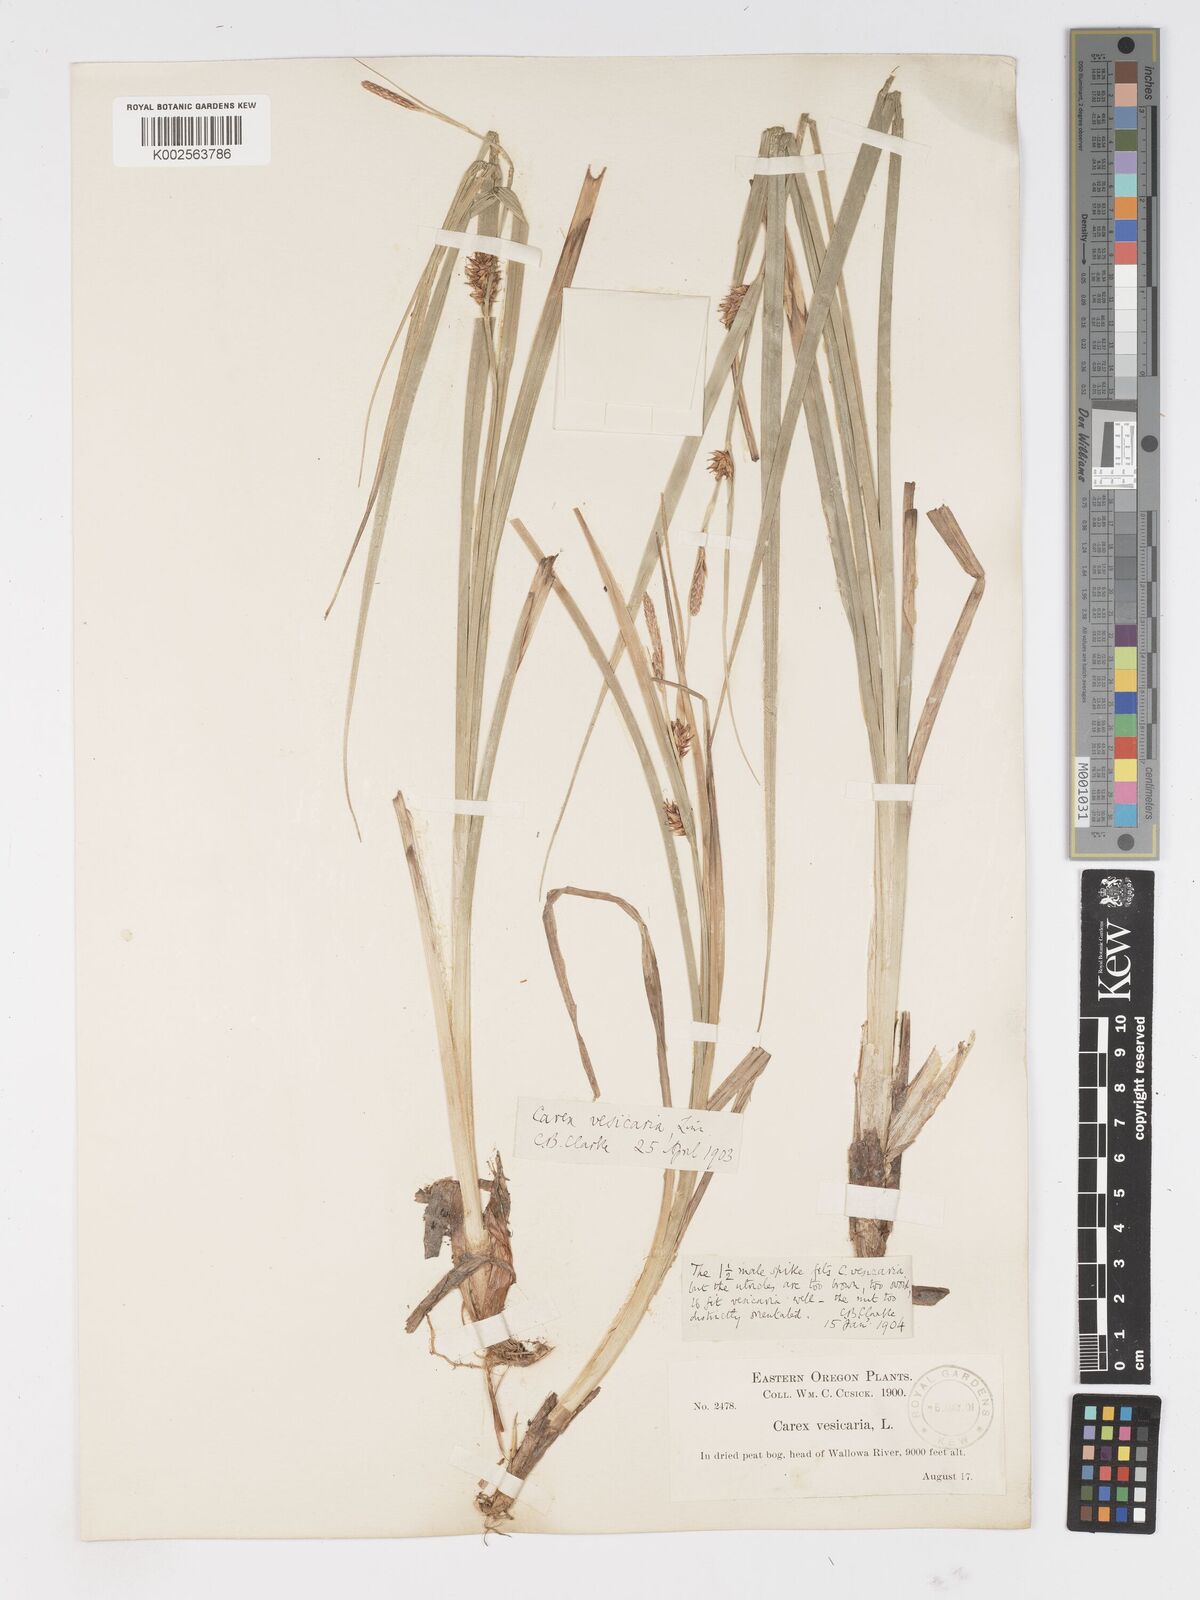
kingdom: Plantae
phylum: Tracheophyta
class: Liliopsida
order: Poales
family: Cyperaceae
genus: Carex
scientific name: Carex vesicaria
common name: Bladder-sedge
